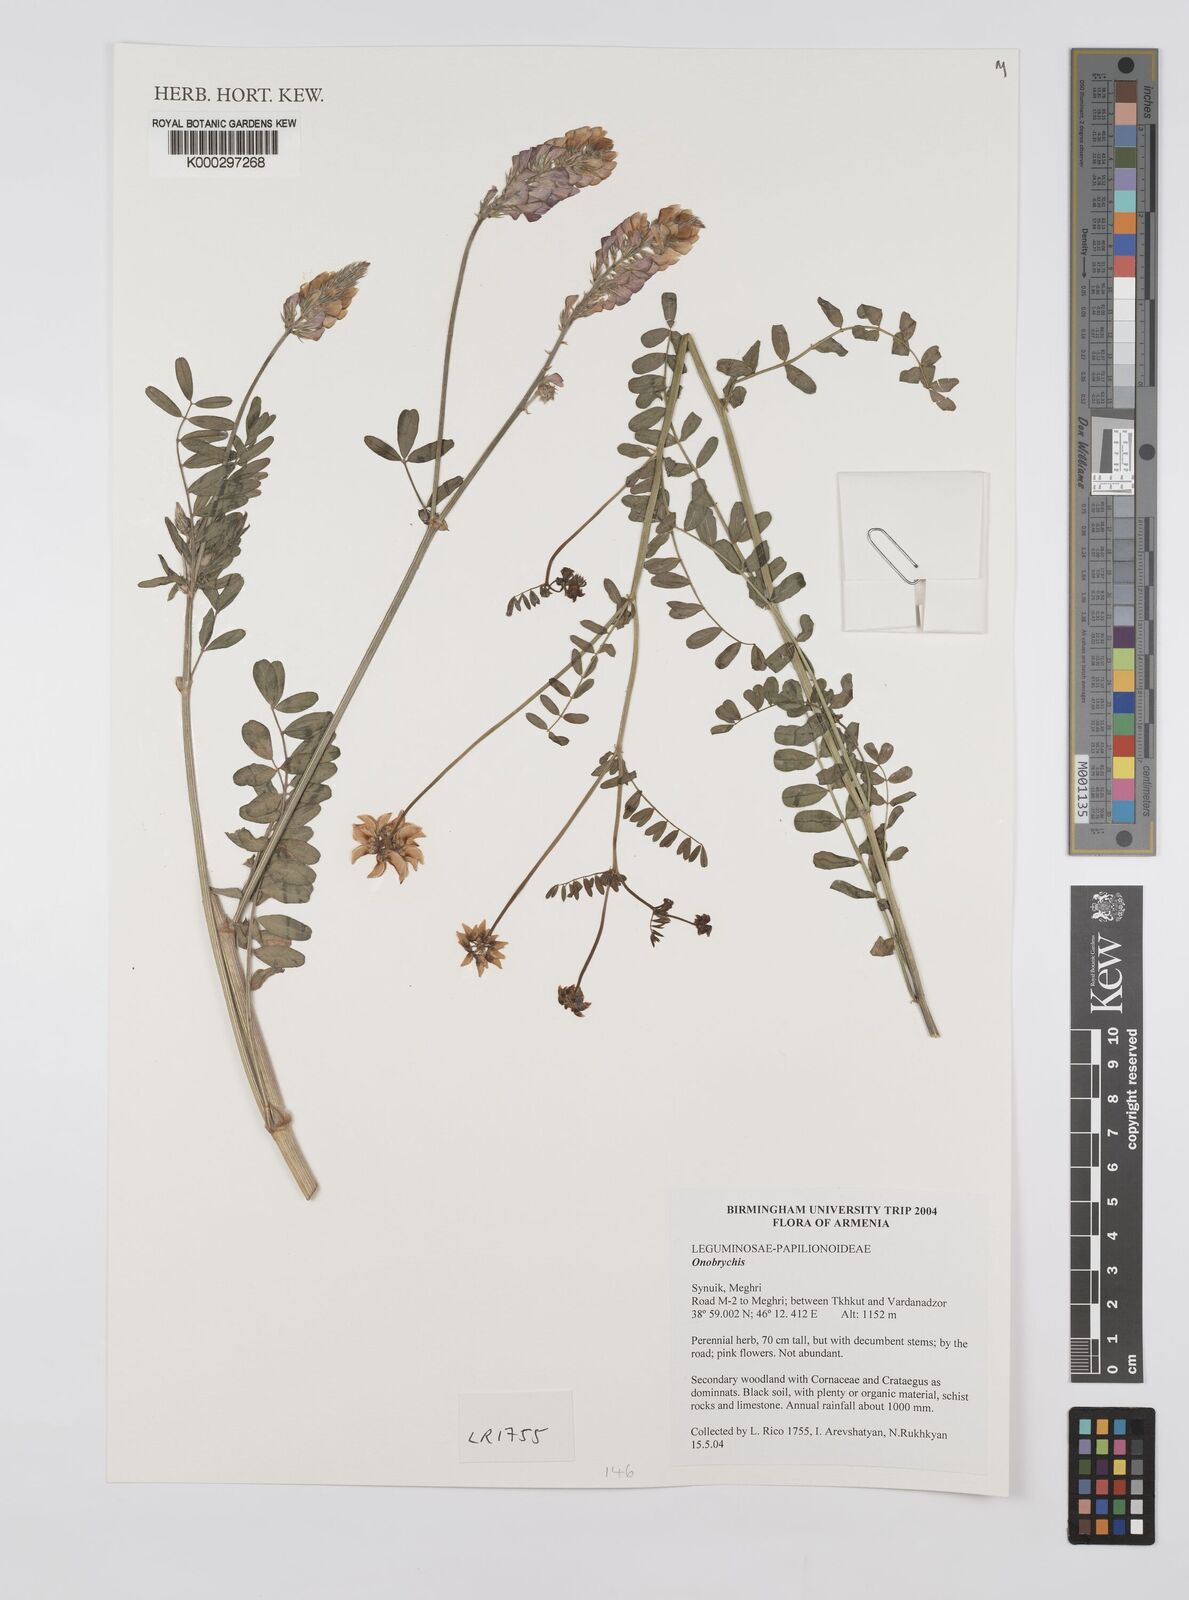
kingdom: Plantae
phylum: Tracheophyta
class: Magnoliopsida
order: Fabales
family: Fabaceae
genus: Onobrychis
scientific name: Onobrychis
